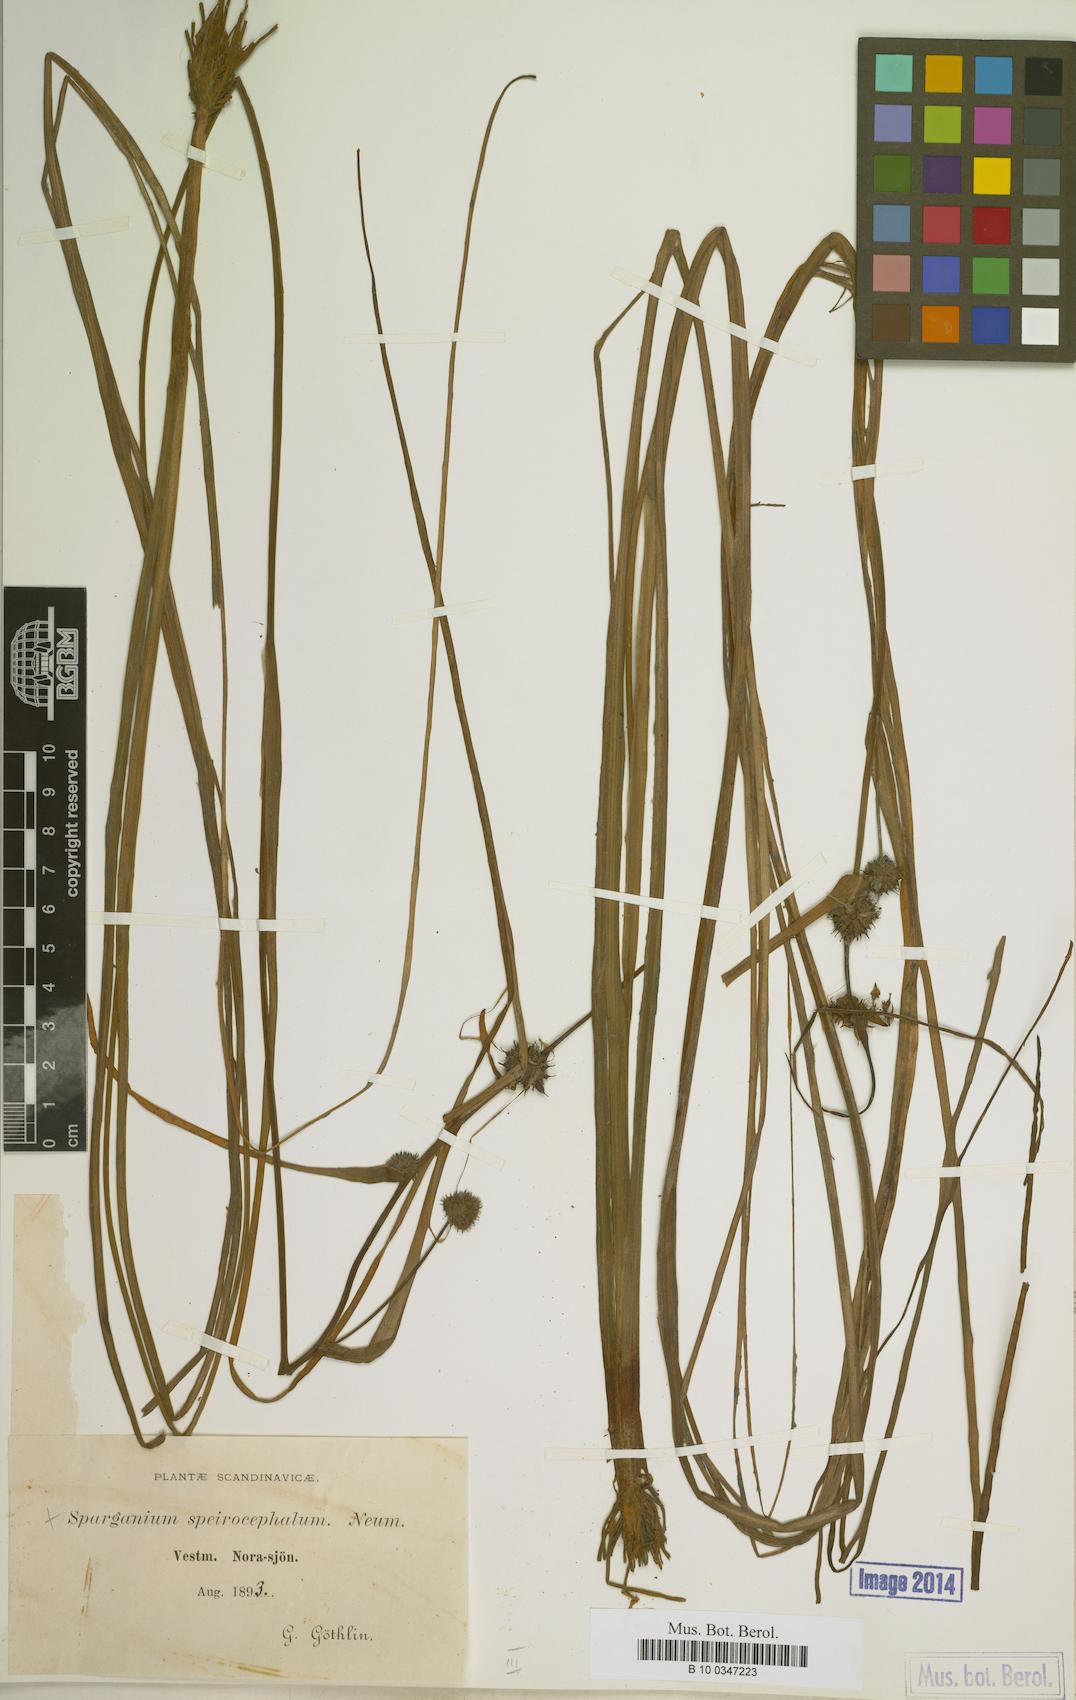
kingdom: Plantae
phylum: Tracheophyta
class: Liliopsida
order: Poales
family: Typhaceae
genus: Sparganium
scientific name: Sparganium speirocephalum
